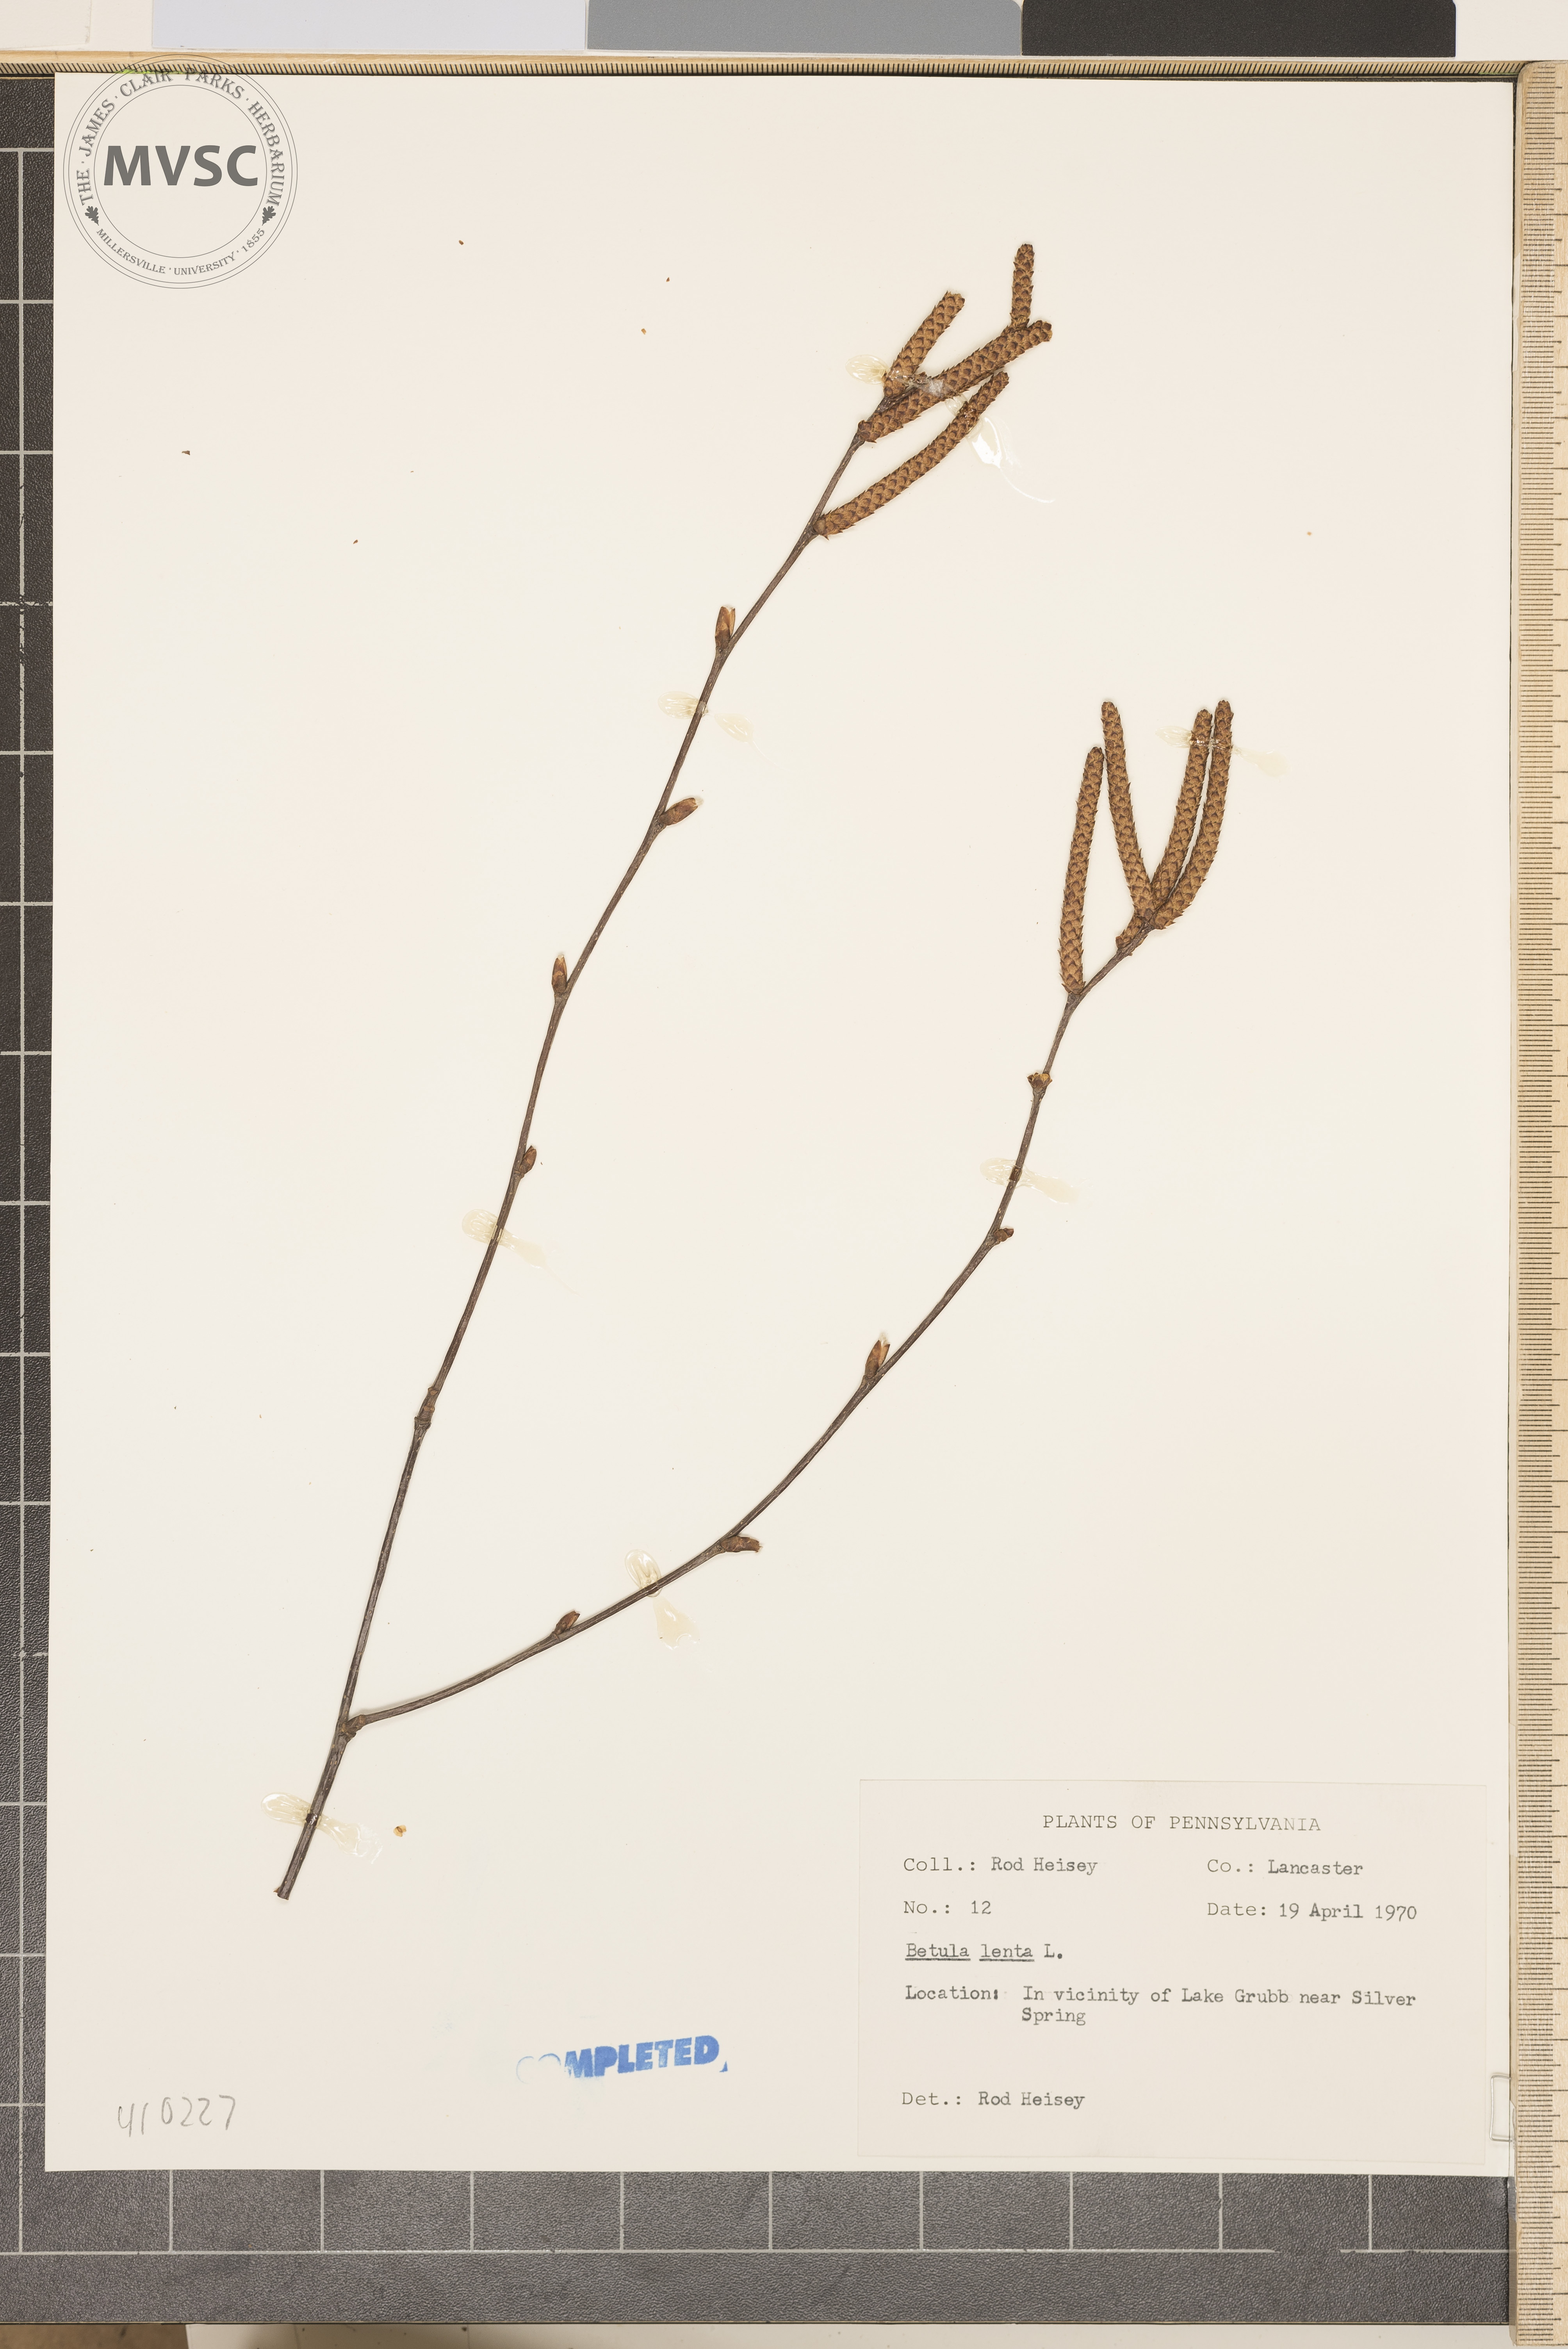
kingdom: Plantae
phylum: Tracheophyta
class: Magnoliopsida
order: Fagales
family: Betulaceae
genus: Betula
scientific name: Betula lenta
